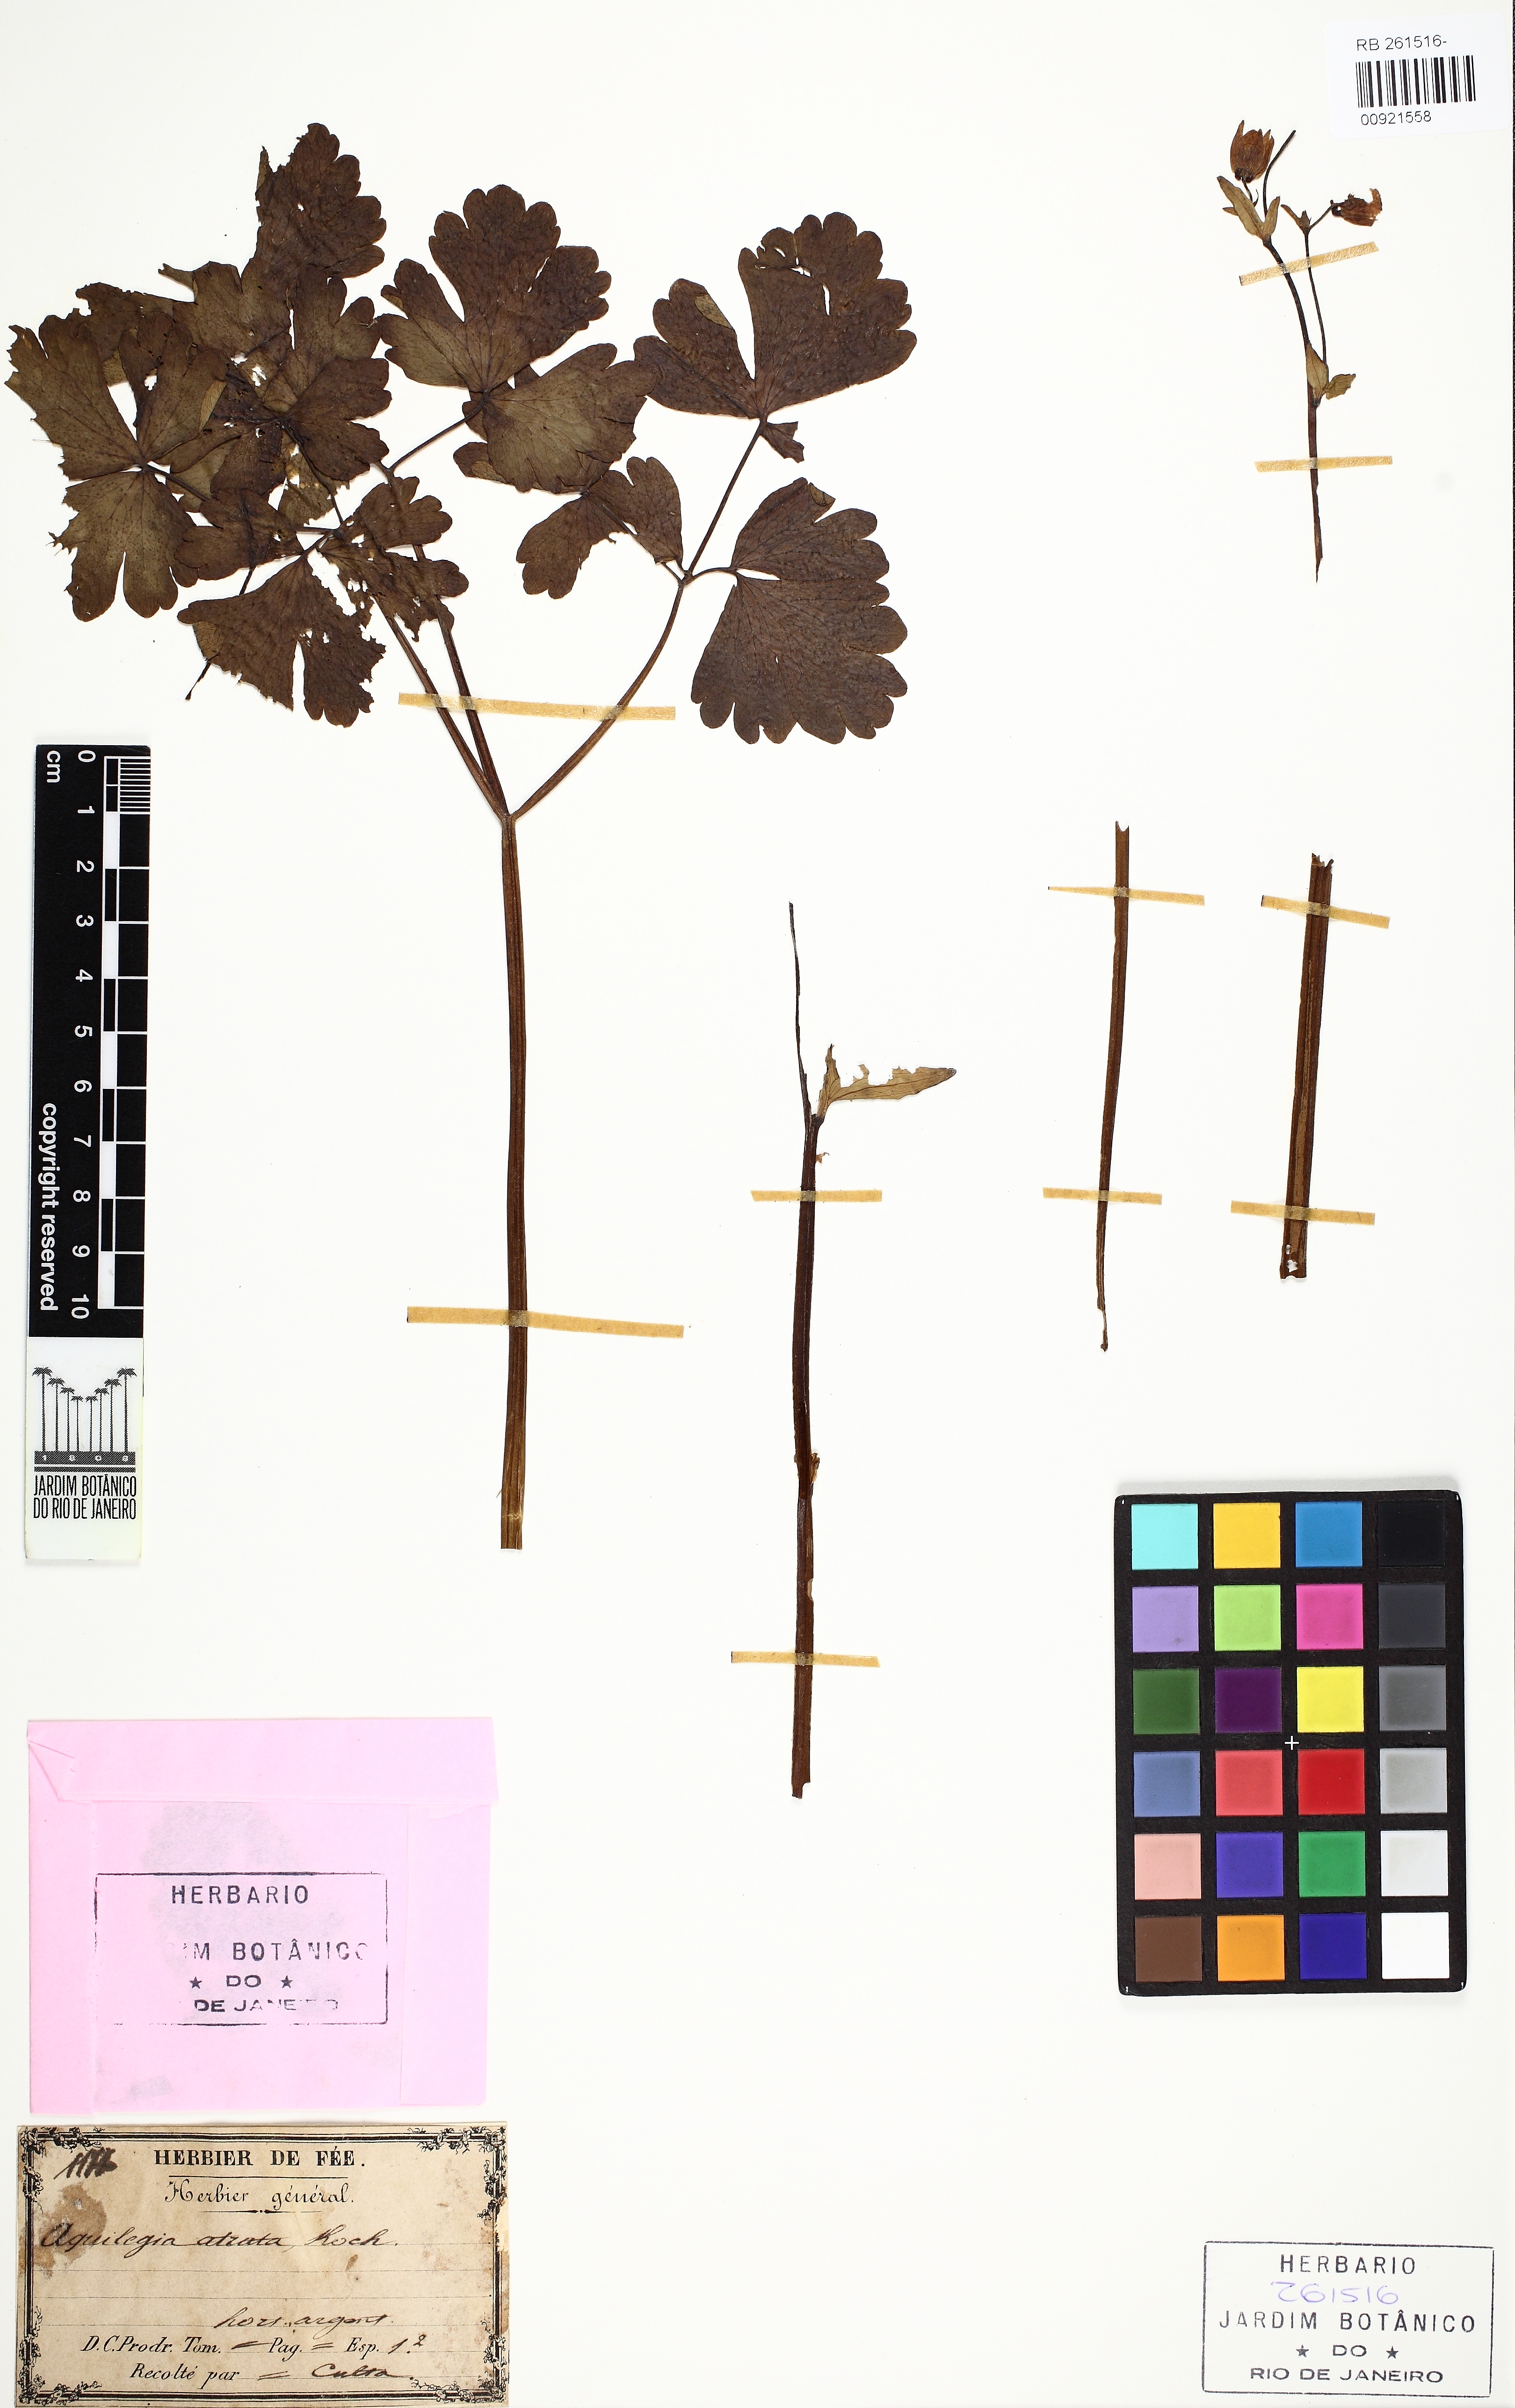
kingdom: Plantae
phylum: Tracheophyta
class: Magnoliopsida
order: Ranunculales
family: Ranunculaceae
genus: Aquilegia
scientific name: Aquilegia atrata
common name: Dark columbine
